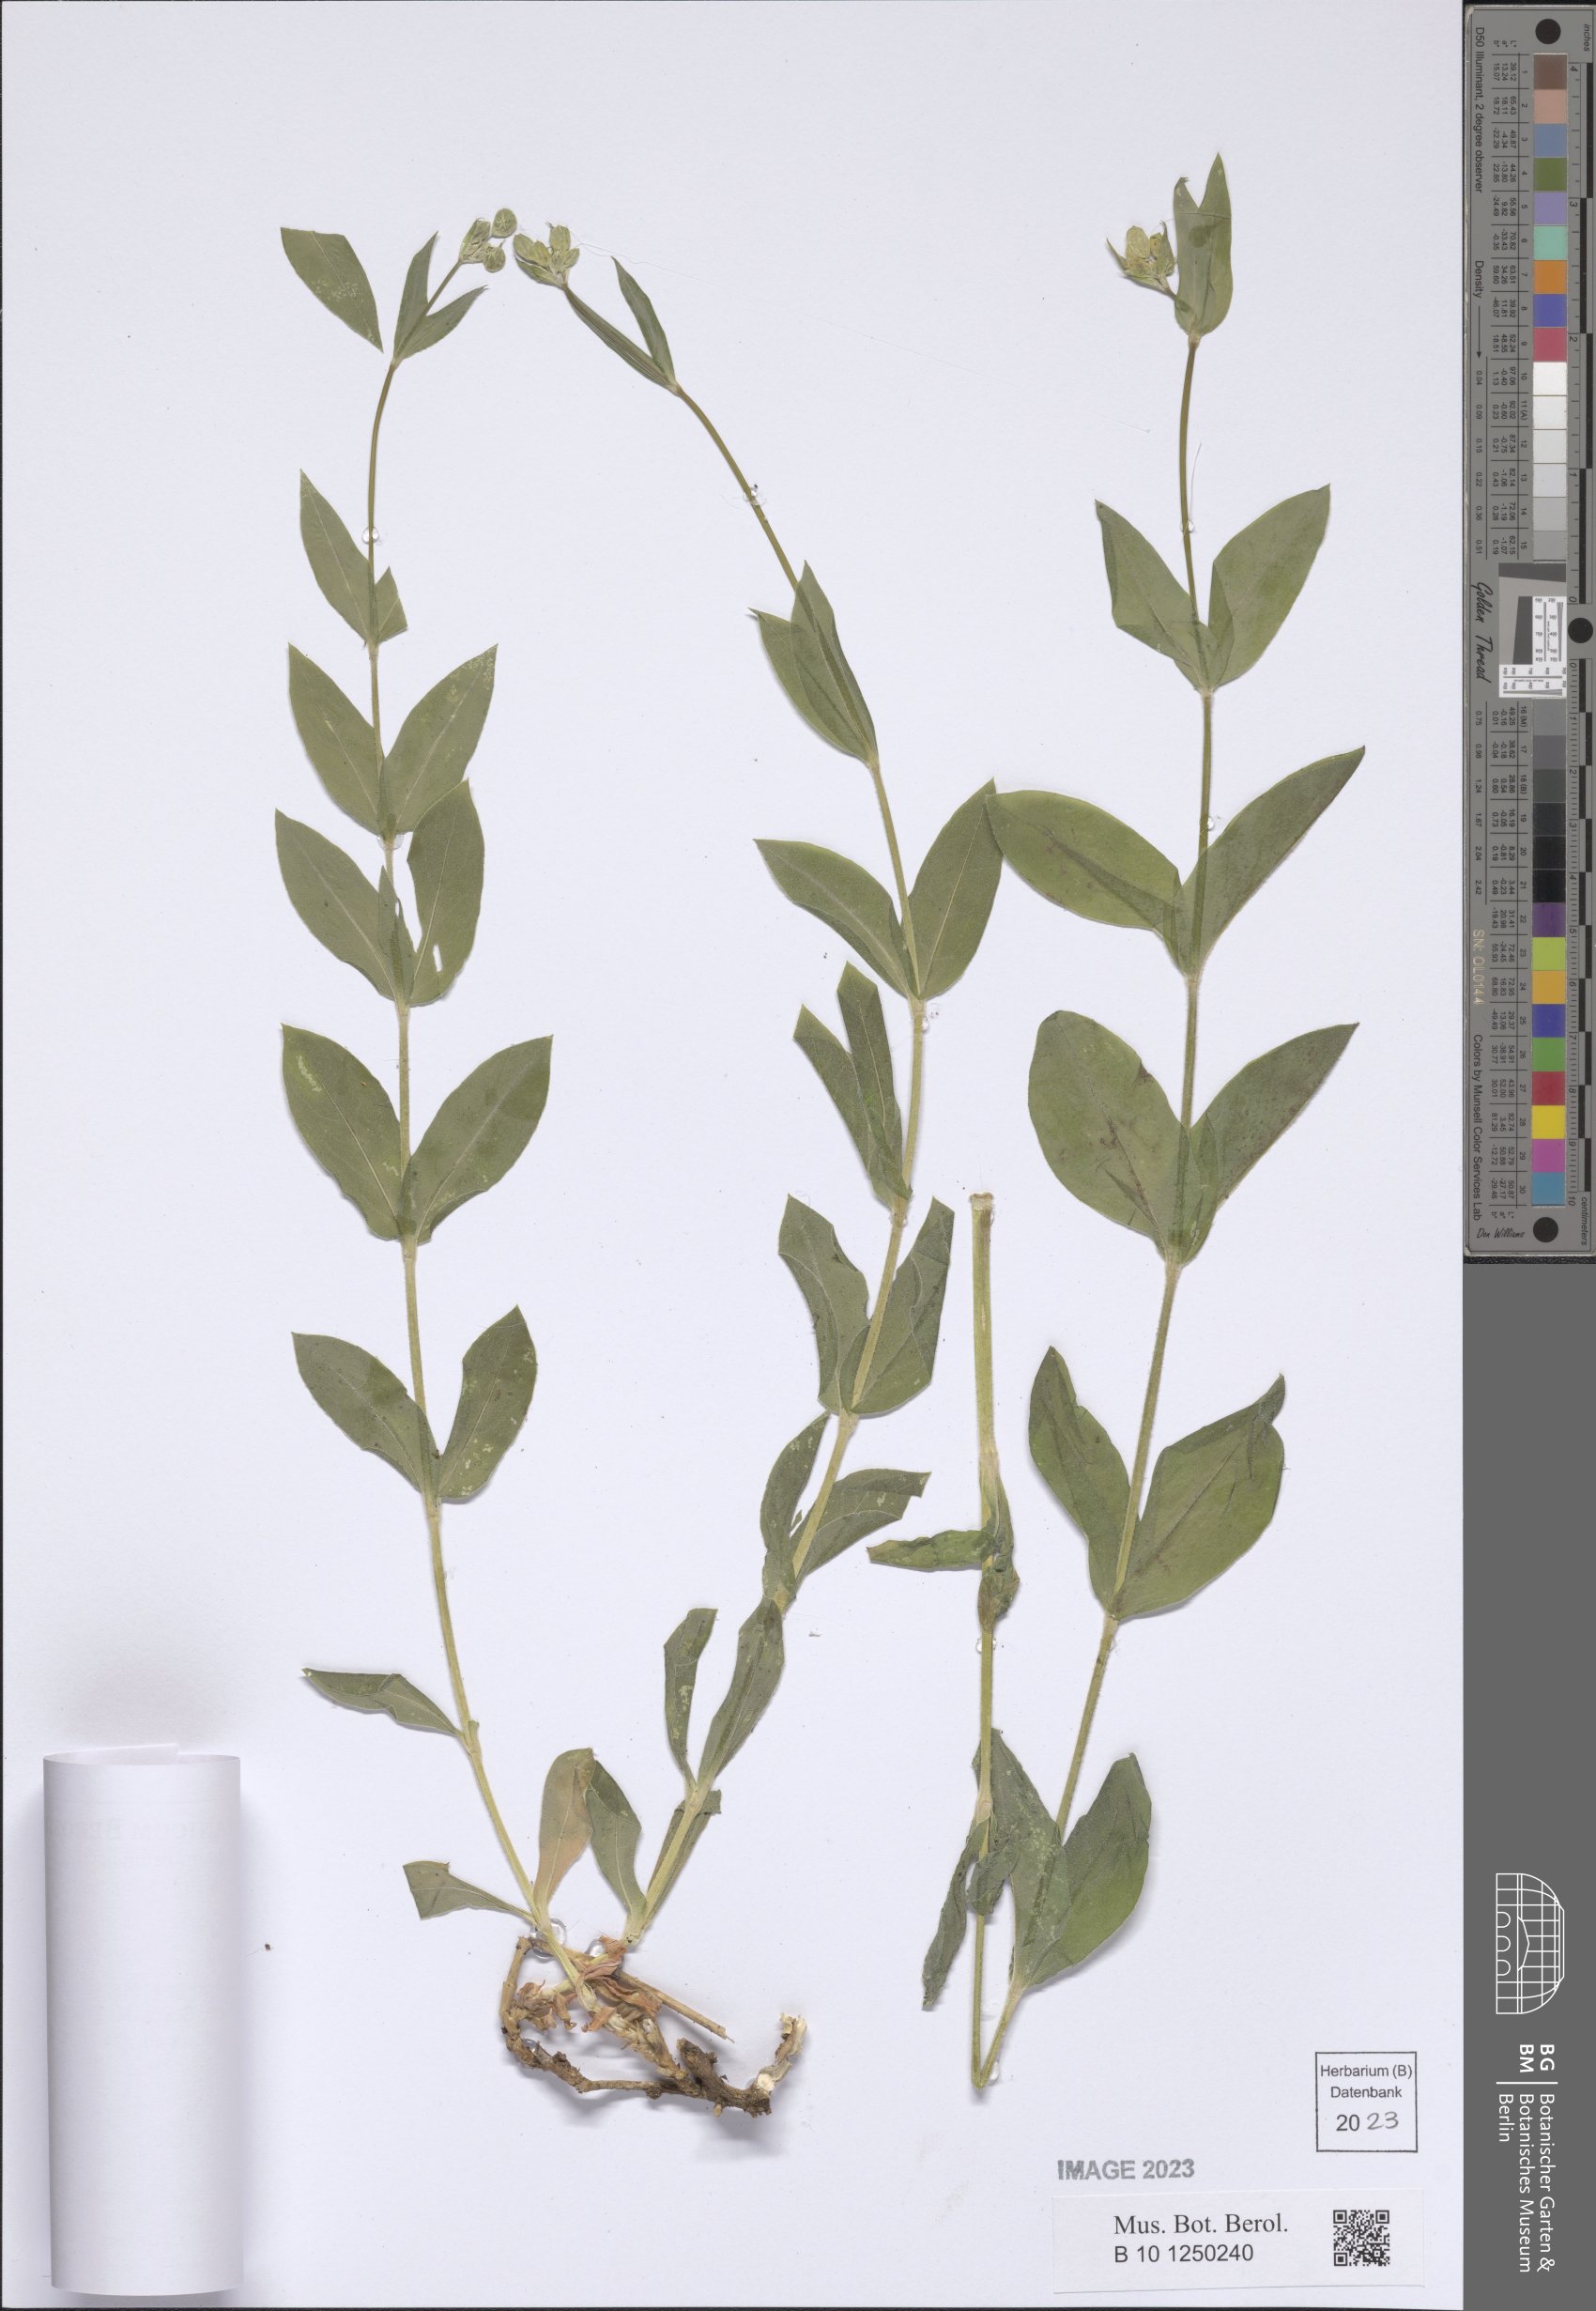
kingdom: Plantae
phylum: Tracheophyta
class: Magnoliopsida
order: Caryophyllales
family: Caryophyllaceae
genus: Silene
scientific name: Silene vulgaris
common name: Bladder campion
